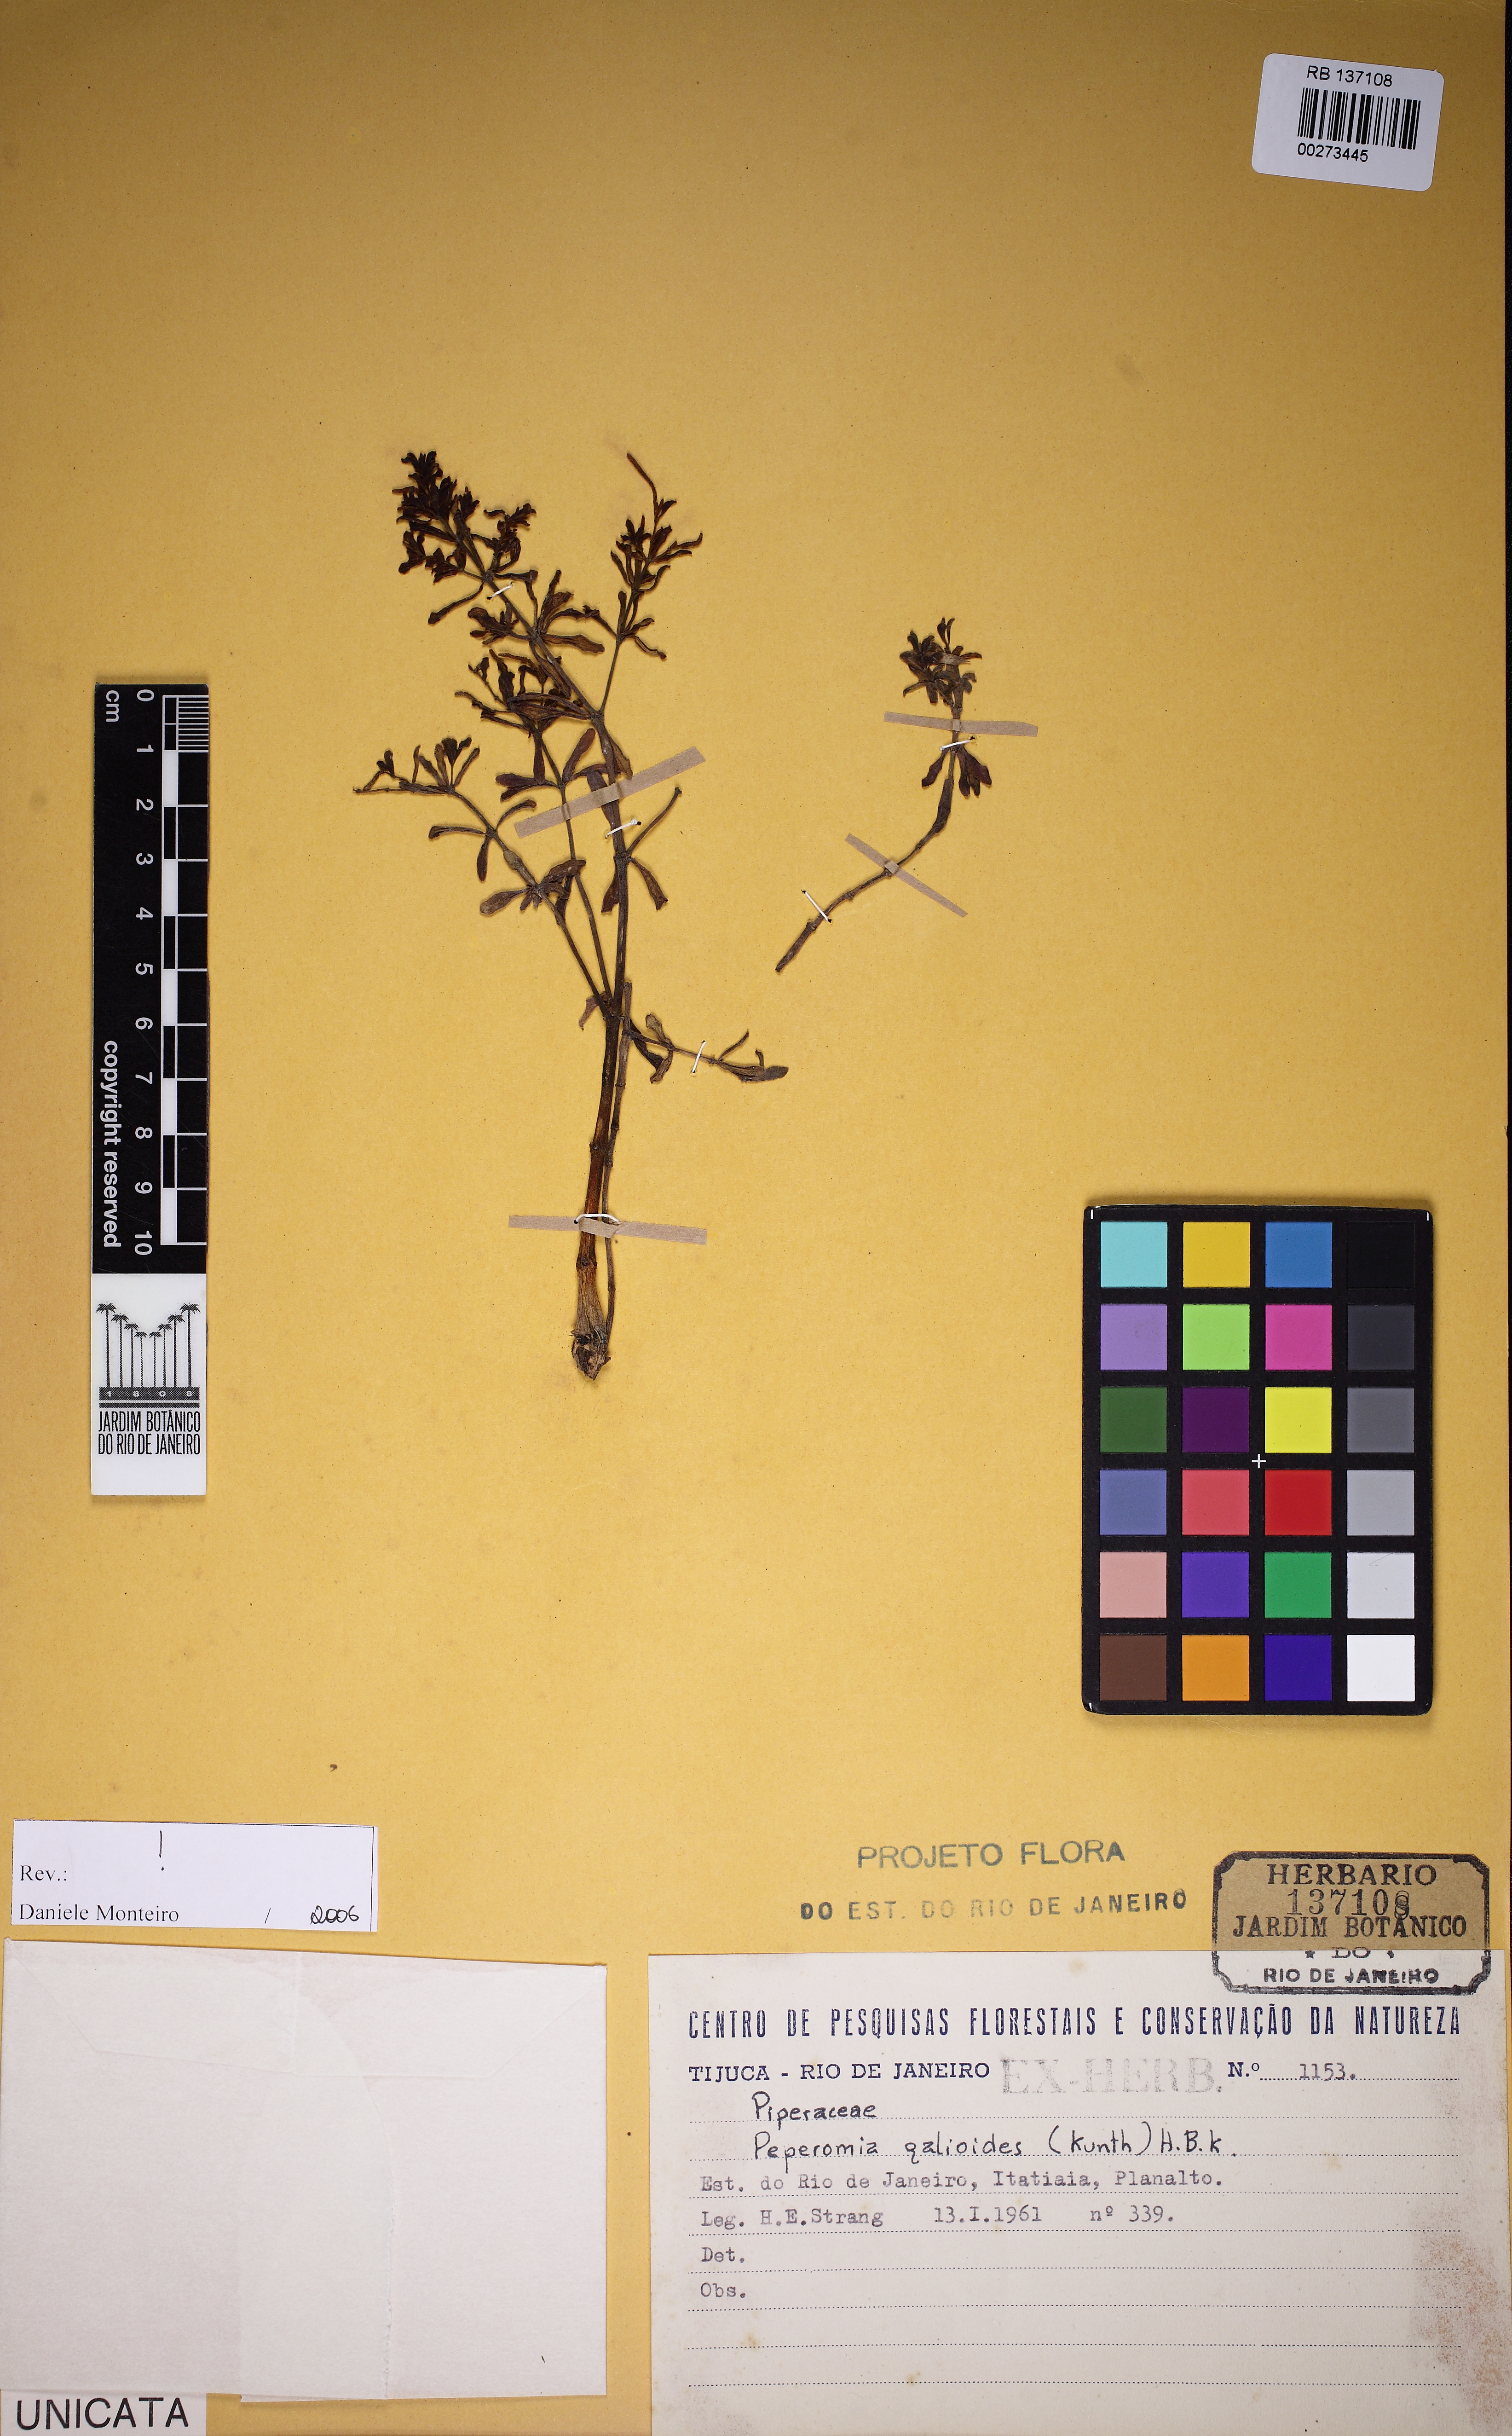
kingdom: Plantae
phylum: Tracheophyta
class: Magnoliopsida
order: Piperales
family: Piperaceae
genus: Peperomia
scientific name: Peperomia galioides
